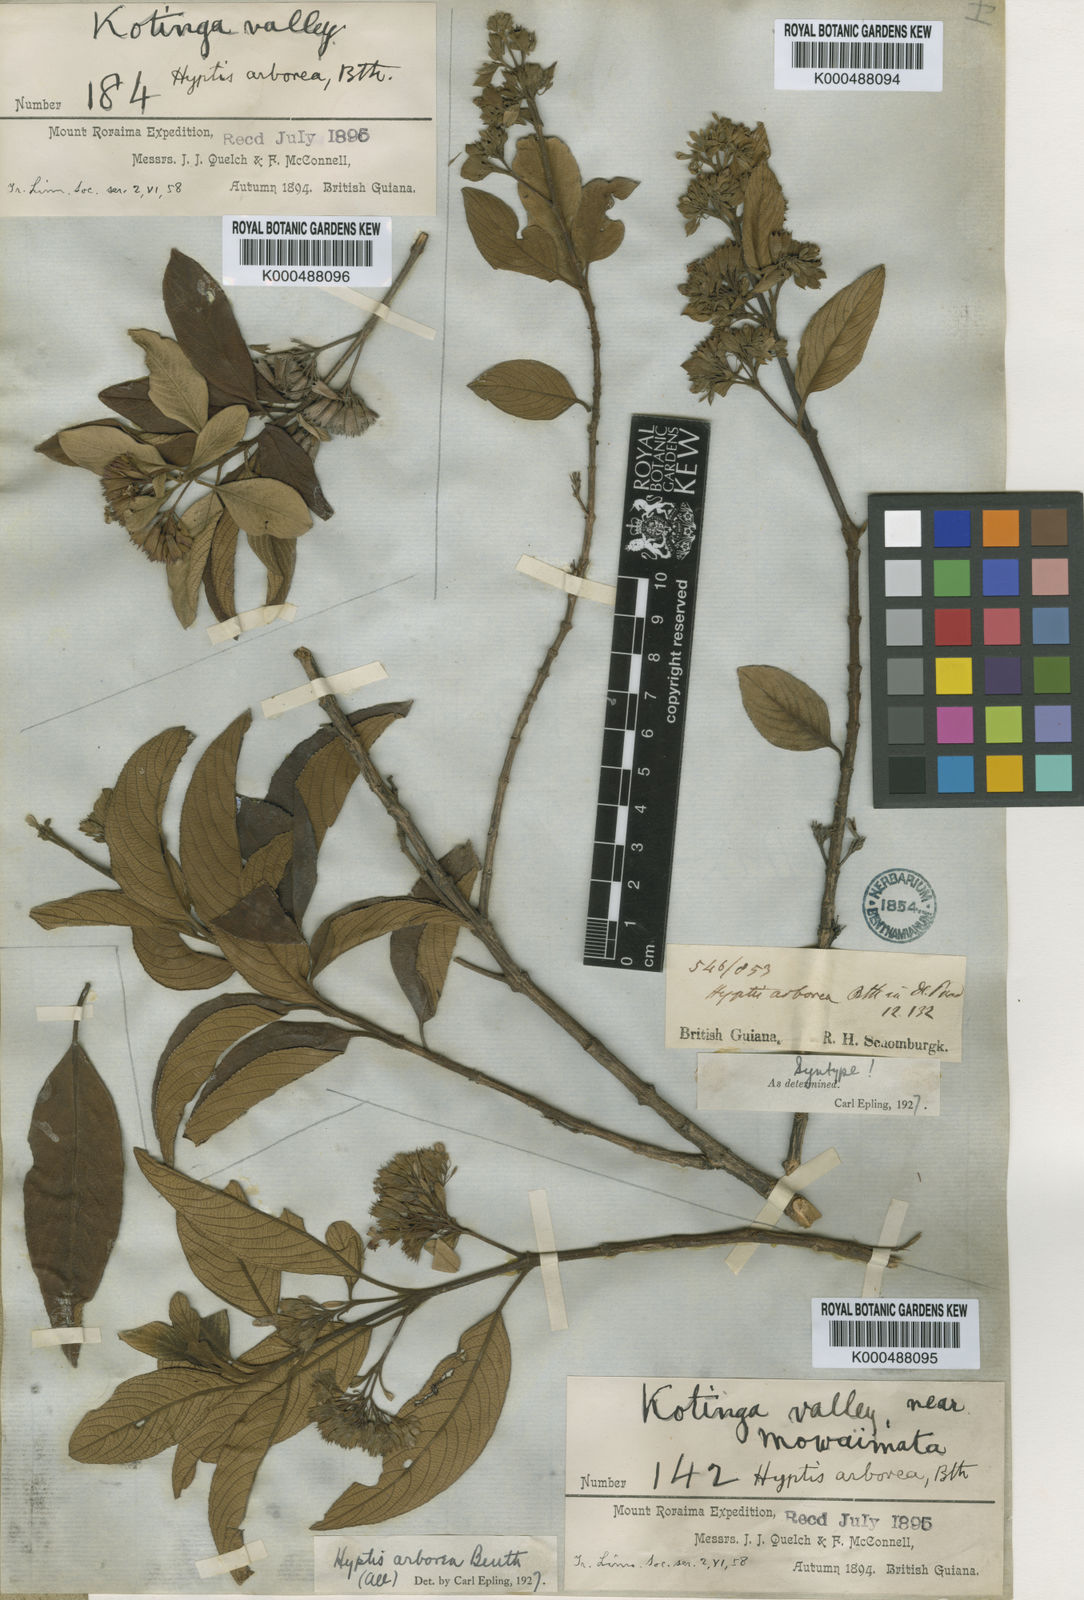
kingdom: Plantae
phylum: Tracheophyta
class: Magnoliopsida
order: Lamiales
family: Lamiaceae
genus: Hyptidendron
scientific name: Hyptidendron arboreum
